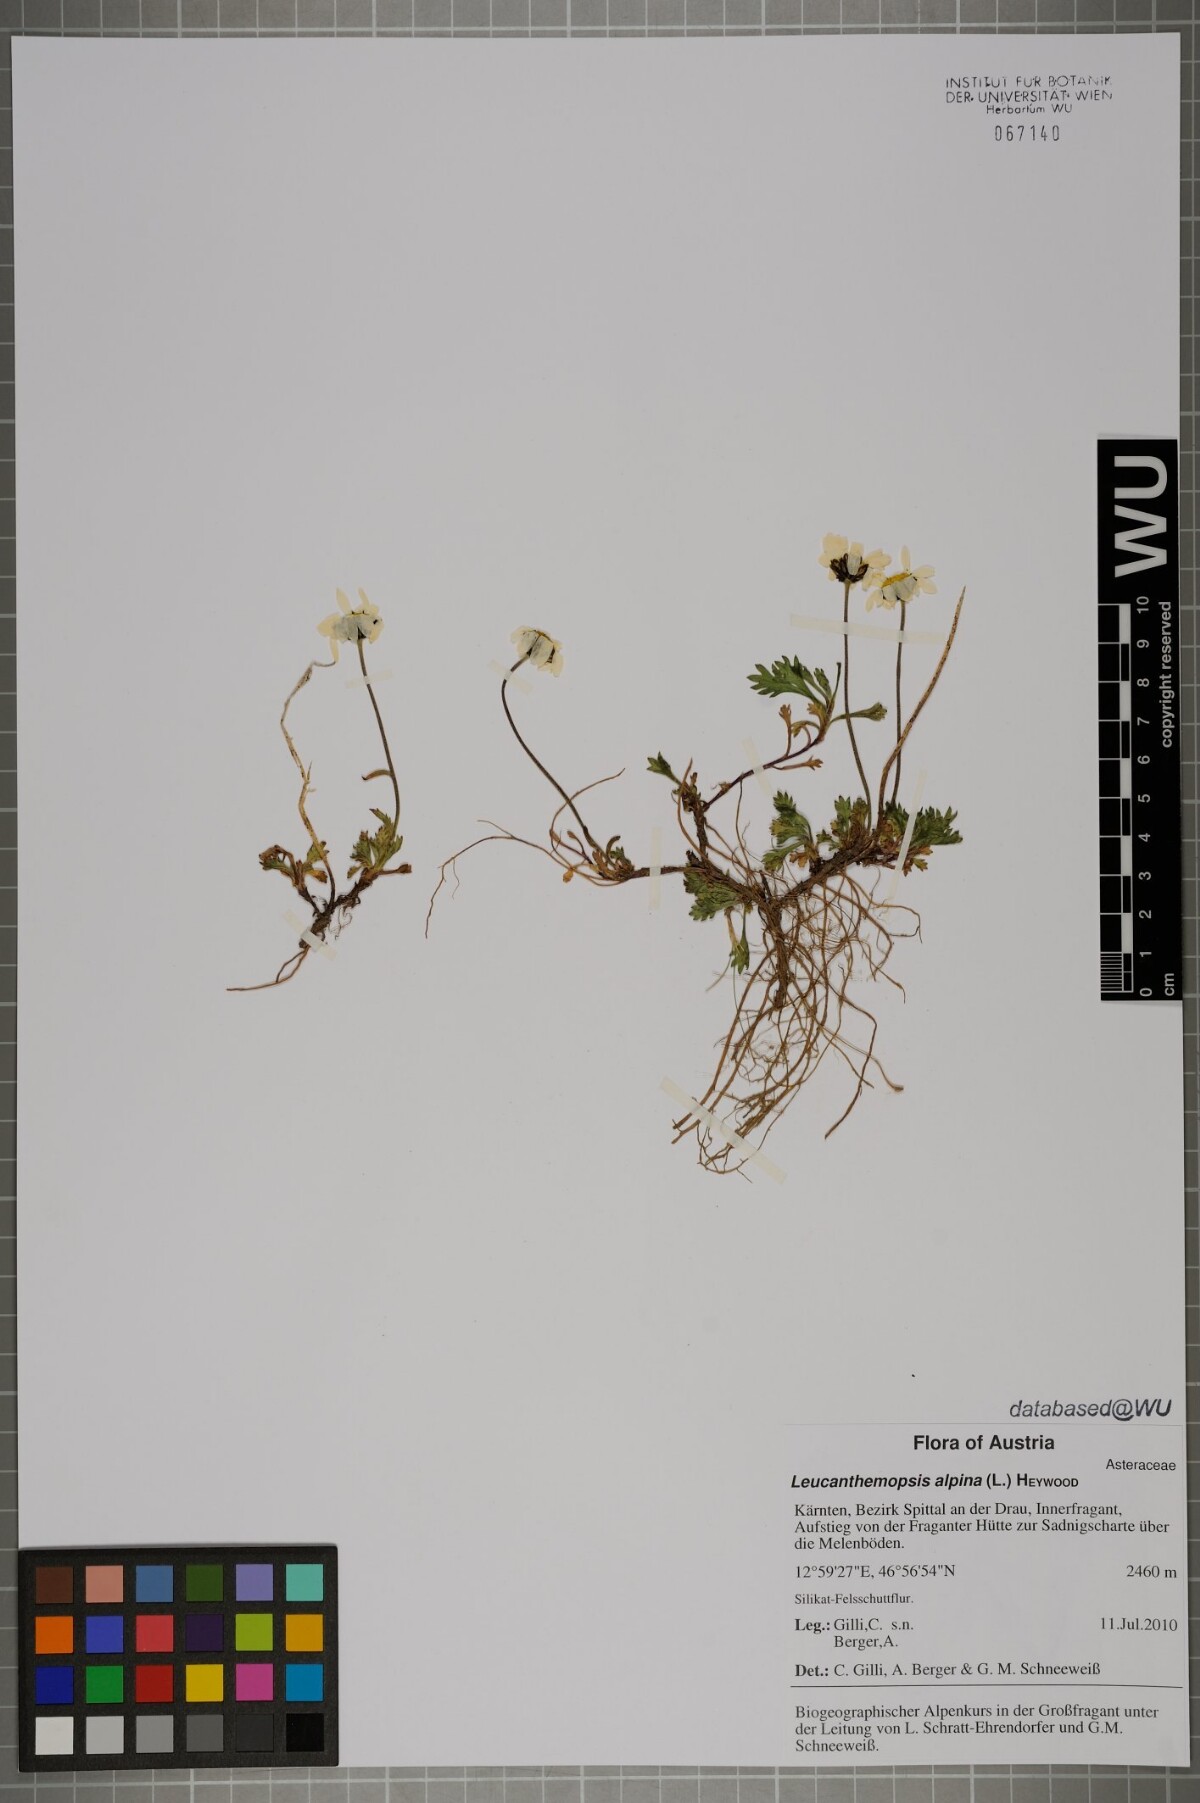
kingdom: Plantae
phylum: Tracheophyta
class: Magnoliopsida
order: Asterales
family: Asteraceae
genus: Leucanthemopsis
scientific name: Leucanthemopsis alpina
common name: Alpine moon daisy
